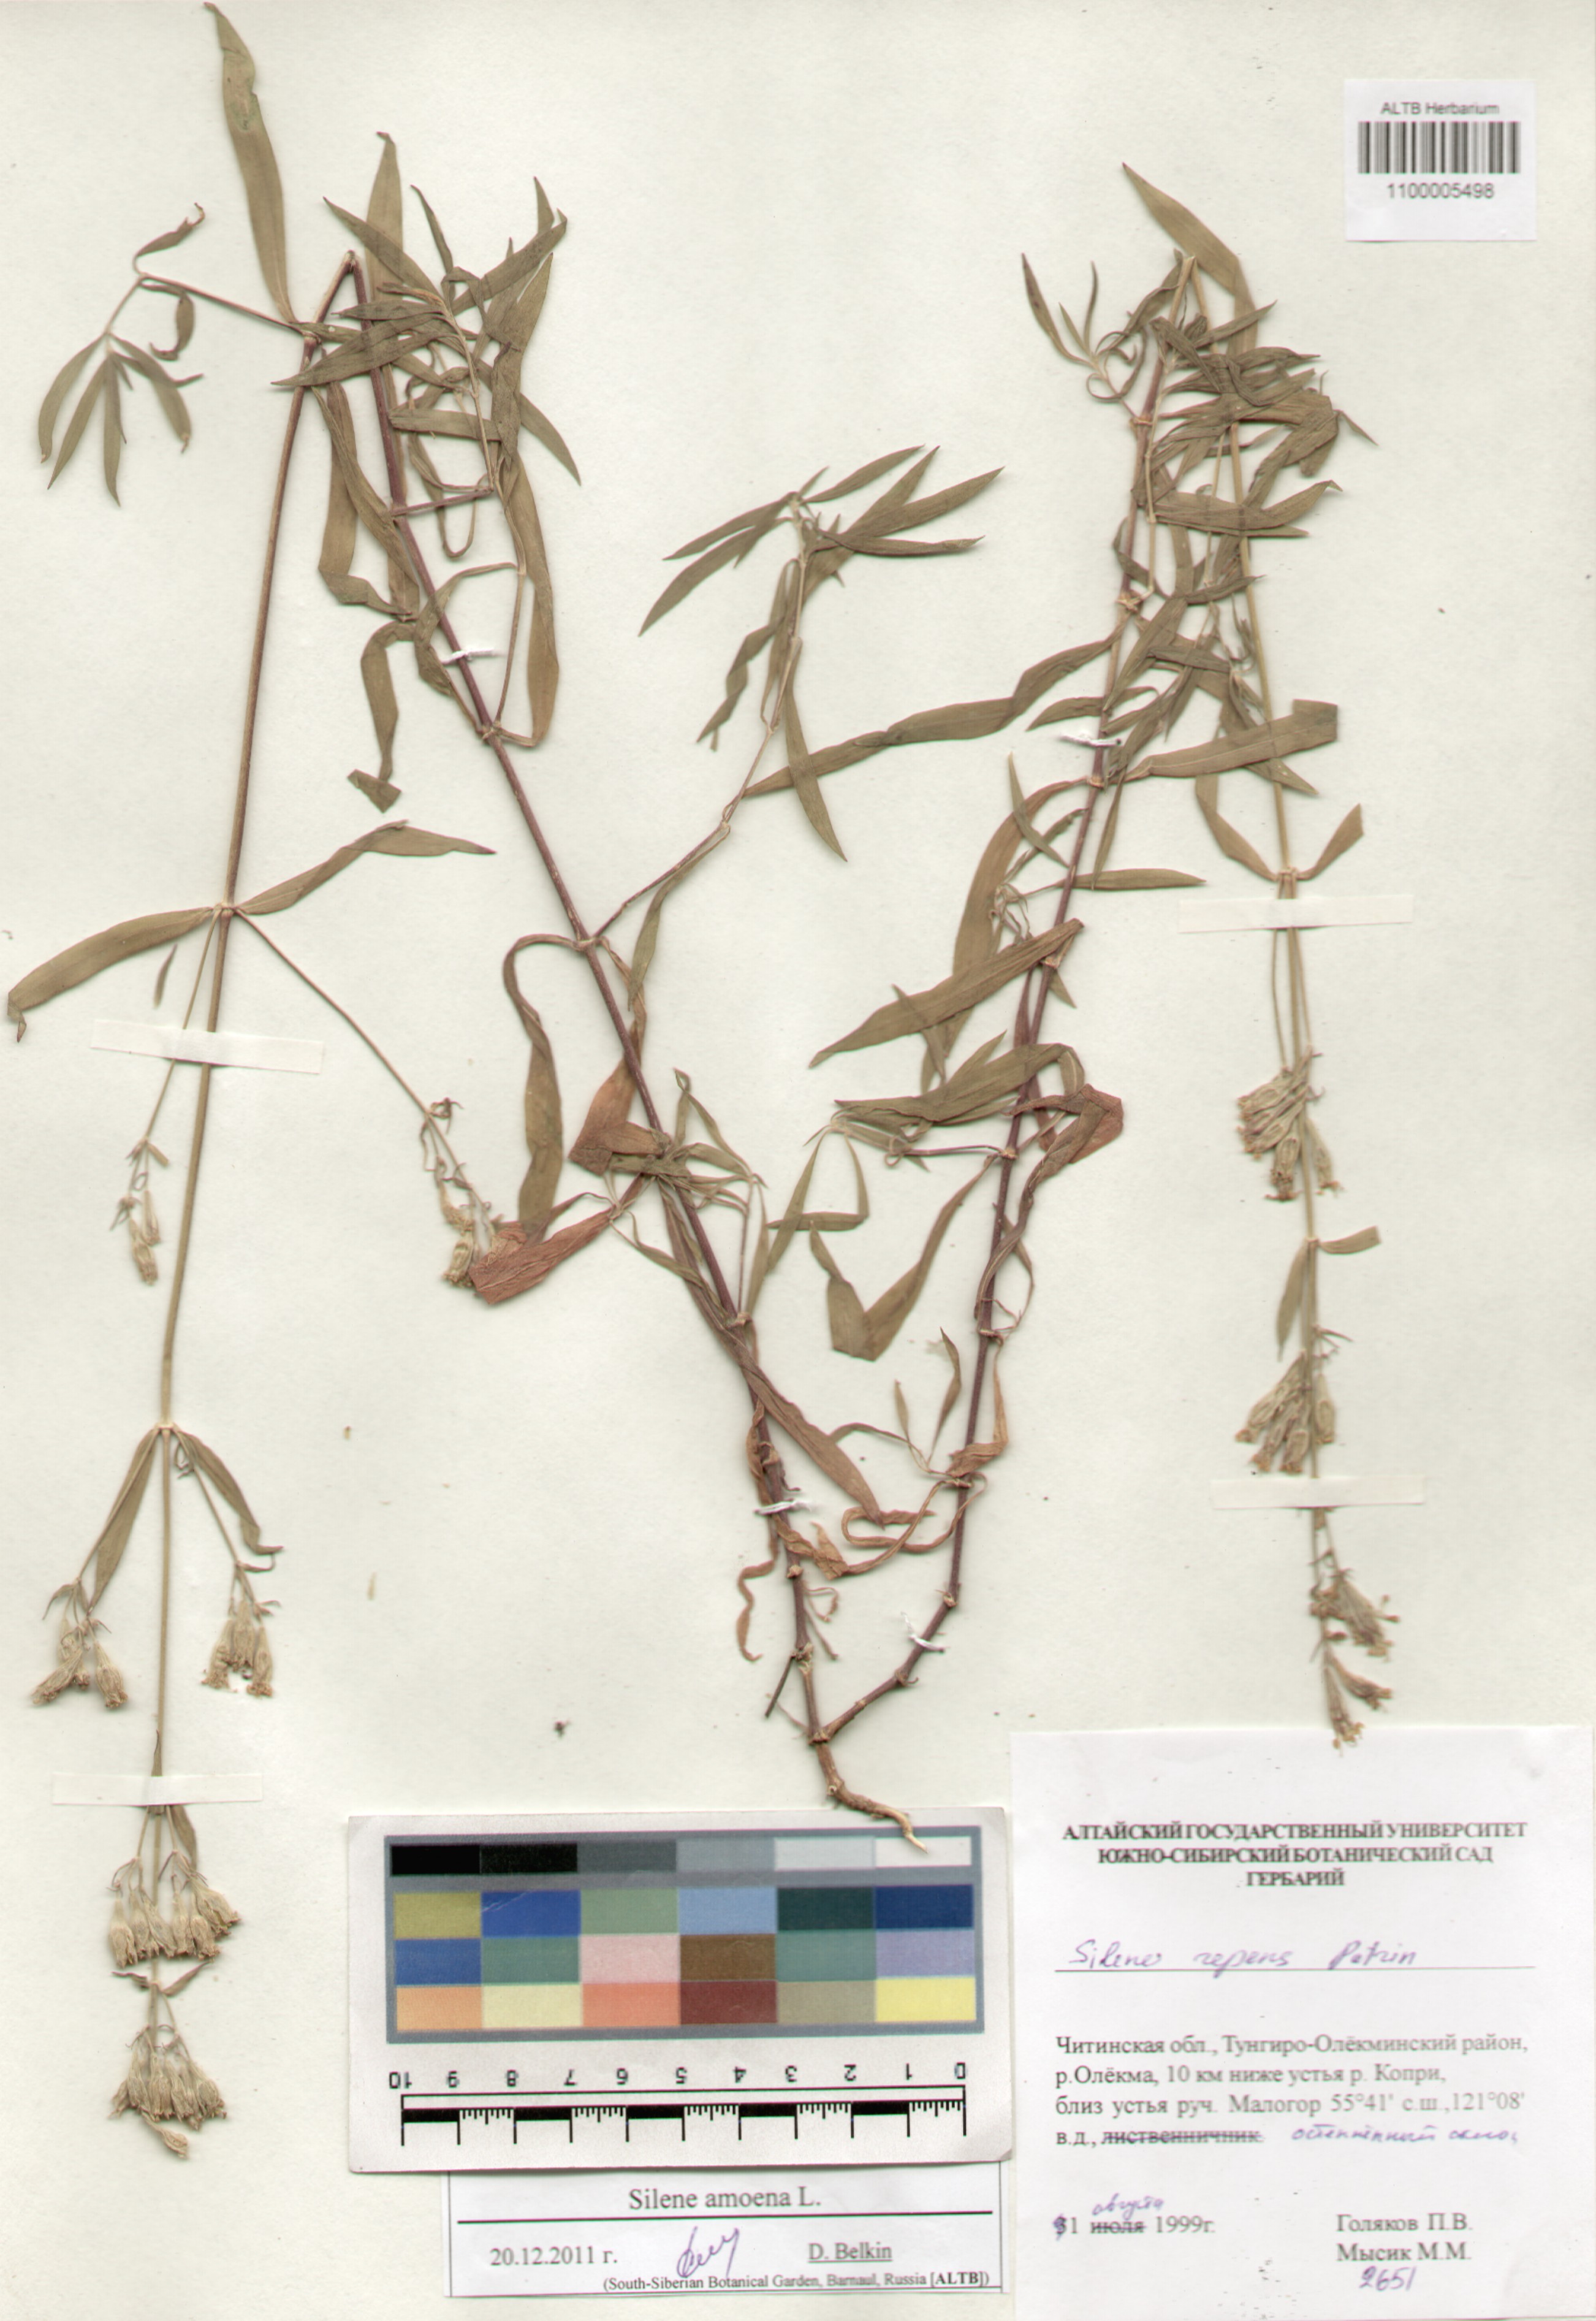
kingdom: Plantae
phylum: Tracheophyta
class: Magnoliopsida
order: Caryophyllales
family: Caryophyllaceae
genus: Silene
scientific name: Silene amoena
